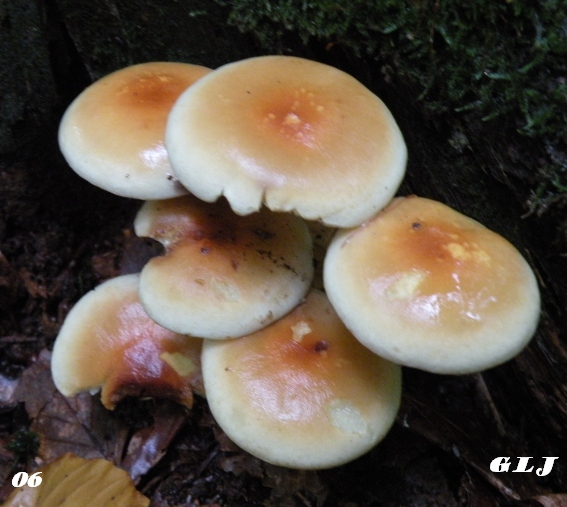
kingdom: Fungi
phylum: Basidiomycota
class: Agaricomycetes
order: Agaricales
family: Strophariaceae
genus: Hypholoma
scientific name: Hypholoma fasciculare
